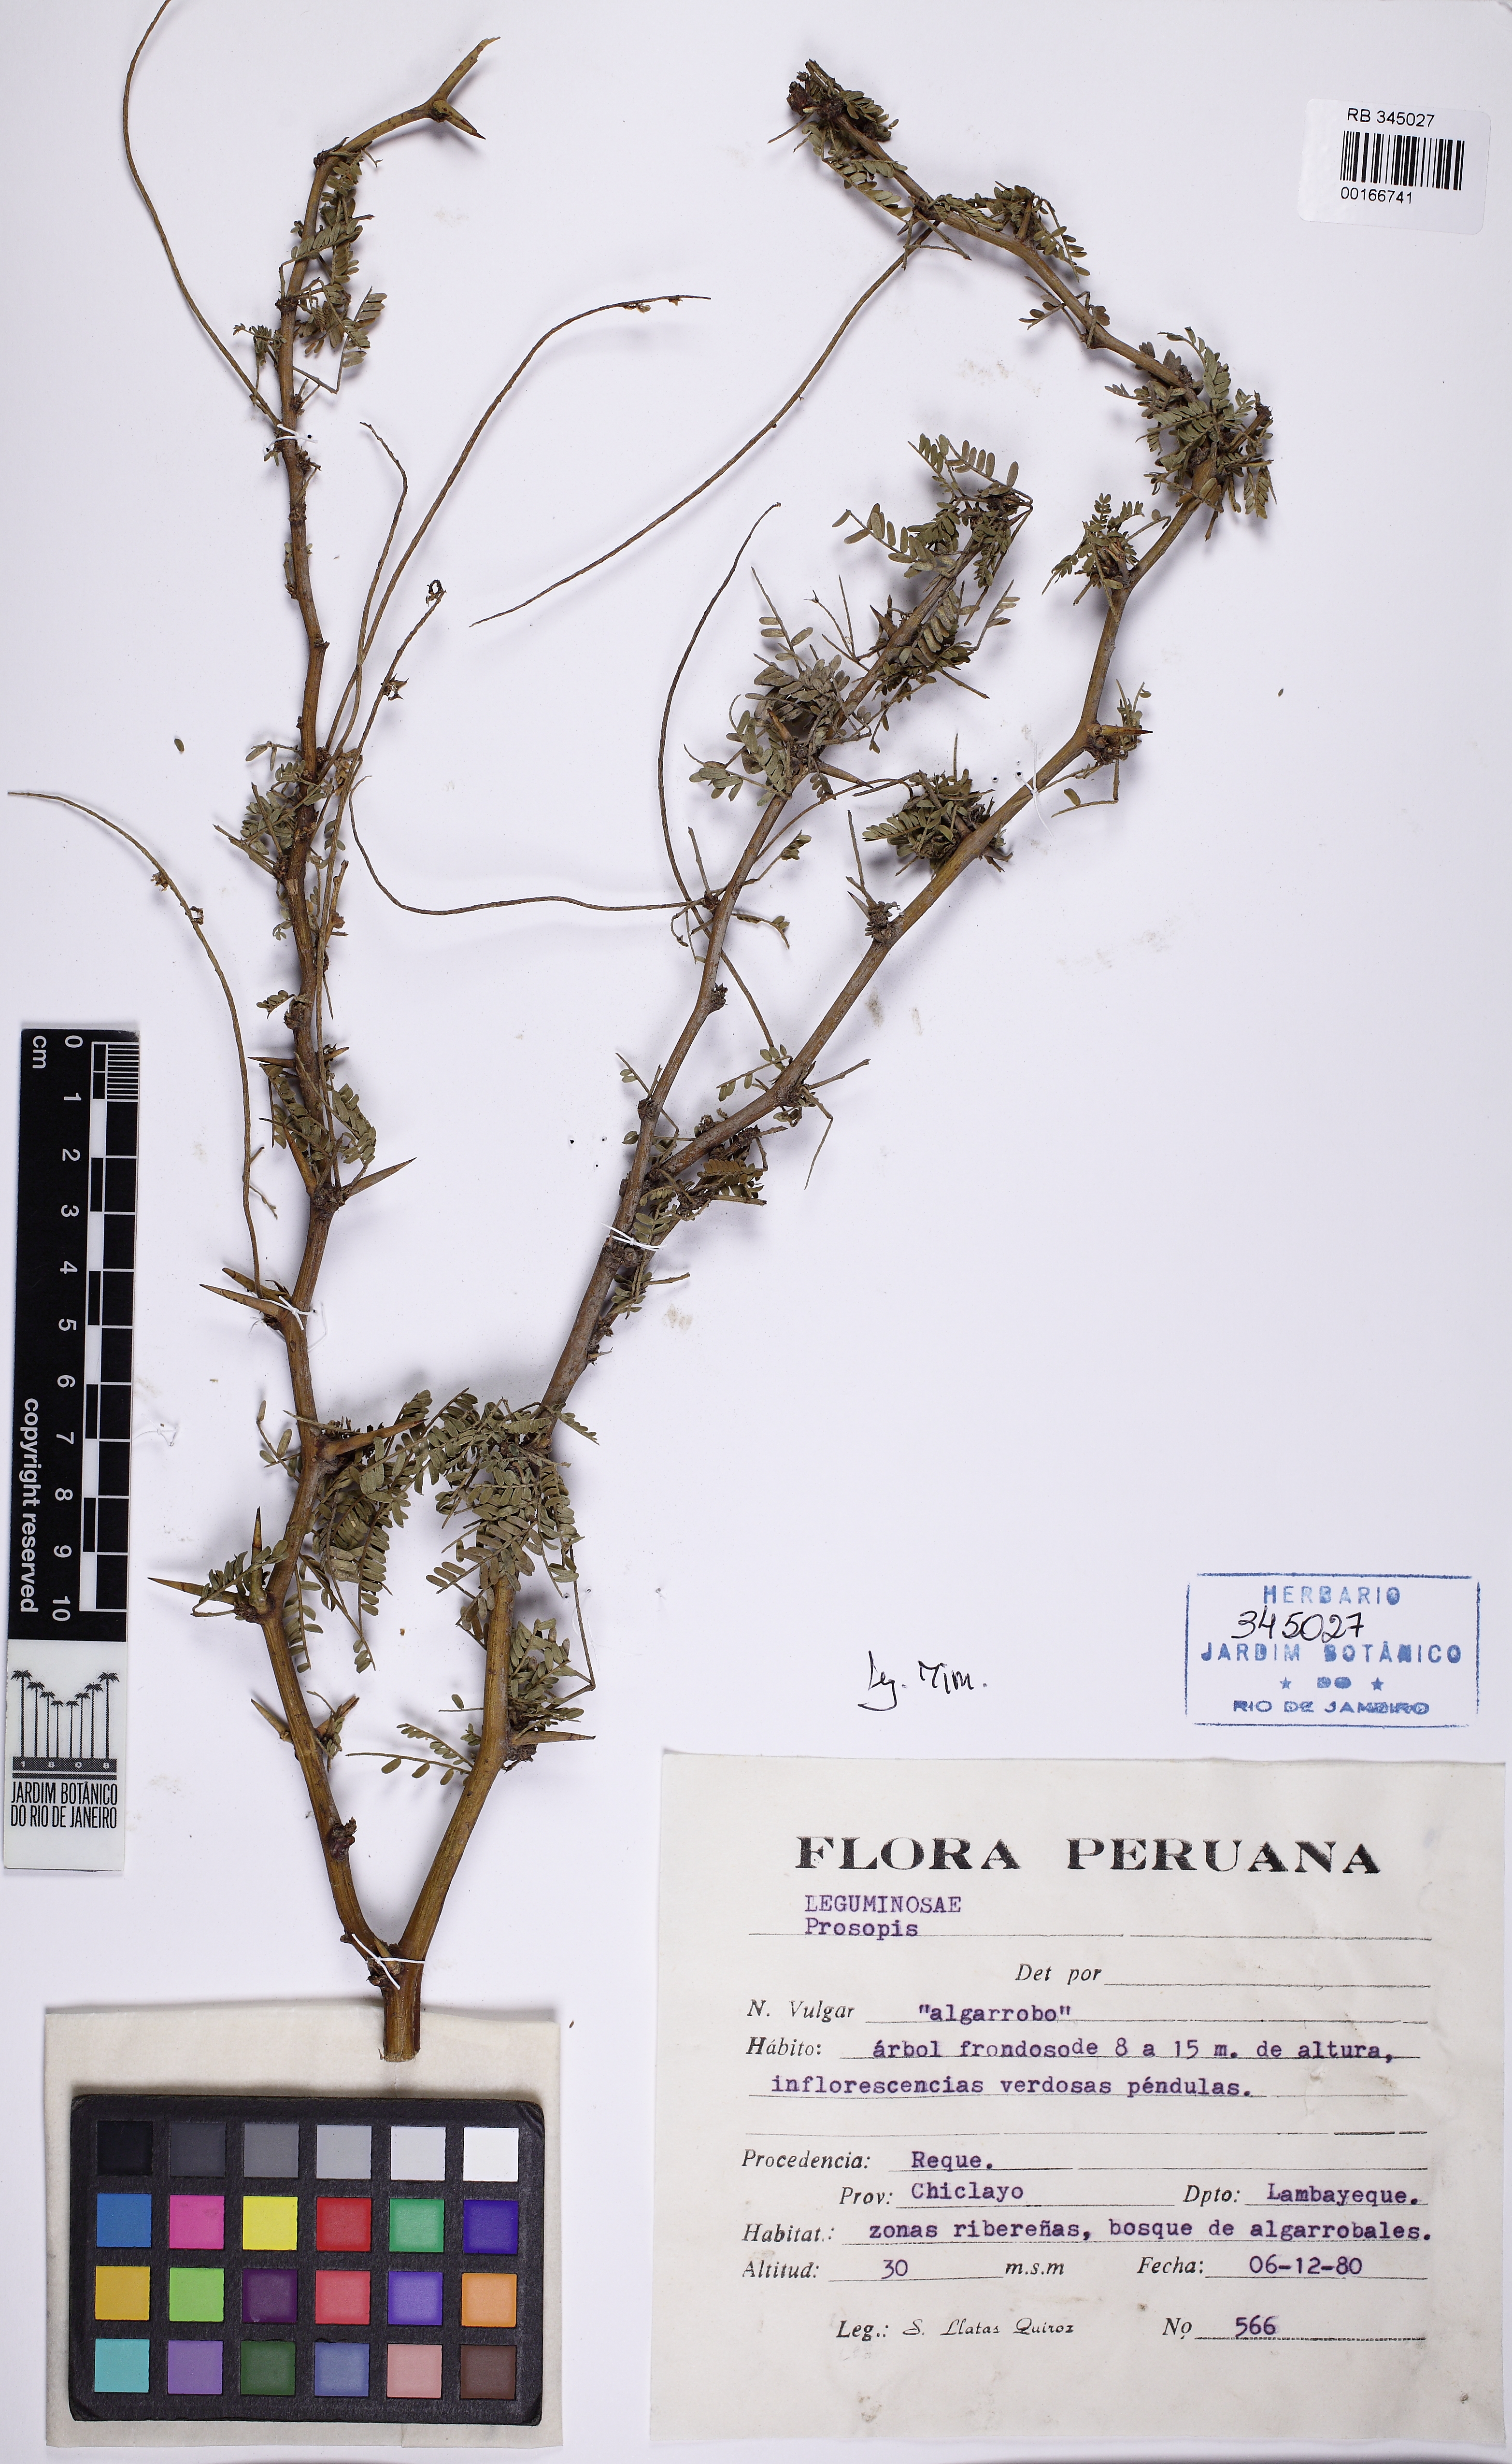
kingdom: Plantae
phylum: Tracheophyta
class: Magnoliopsida
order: Fabales
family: Fabaceae
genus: Prosopis
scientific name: Prosopis
